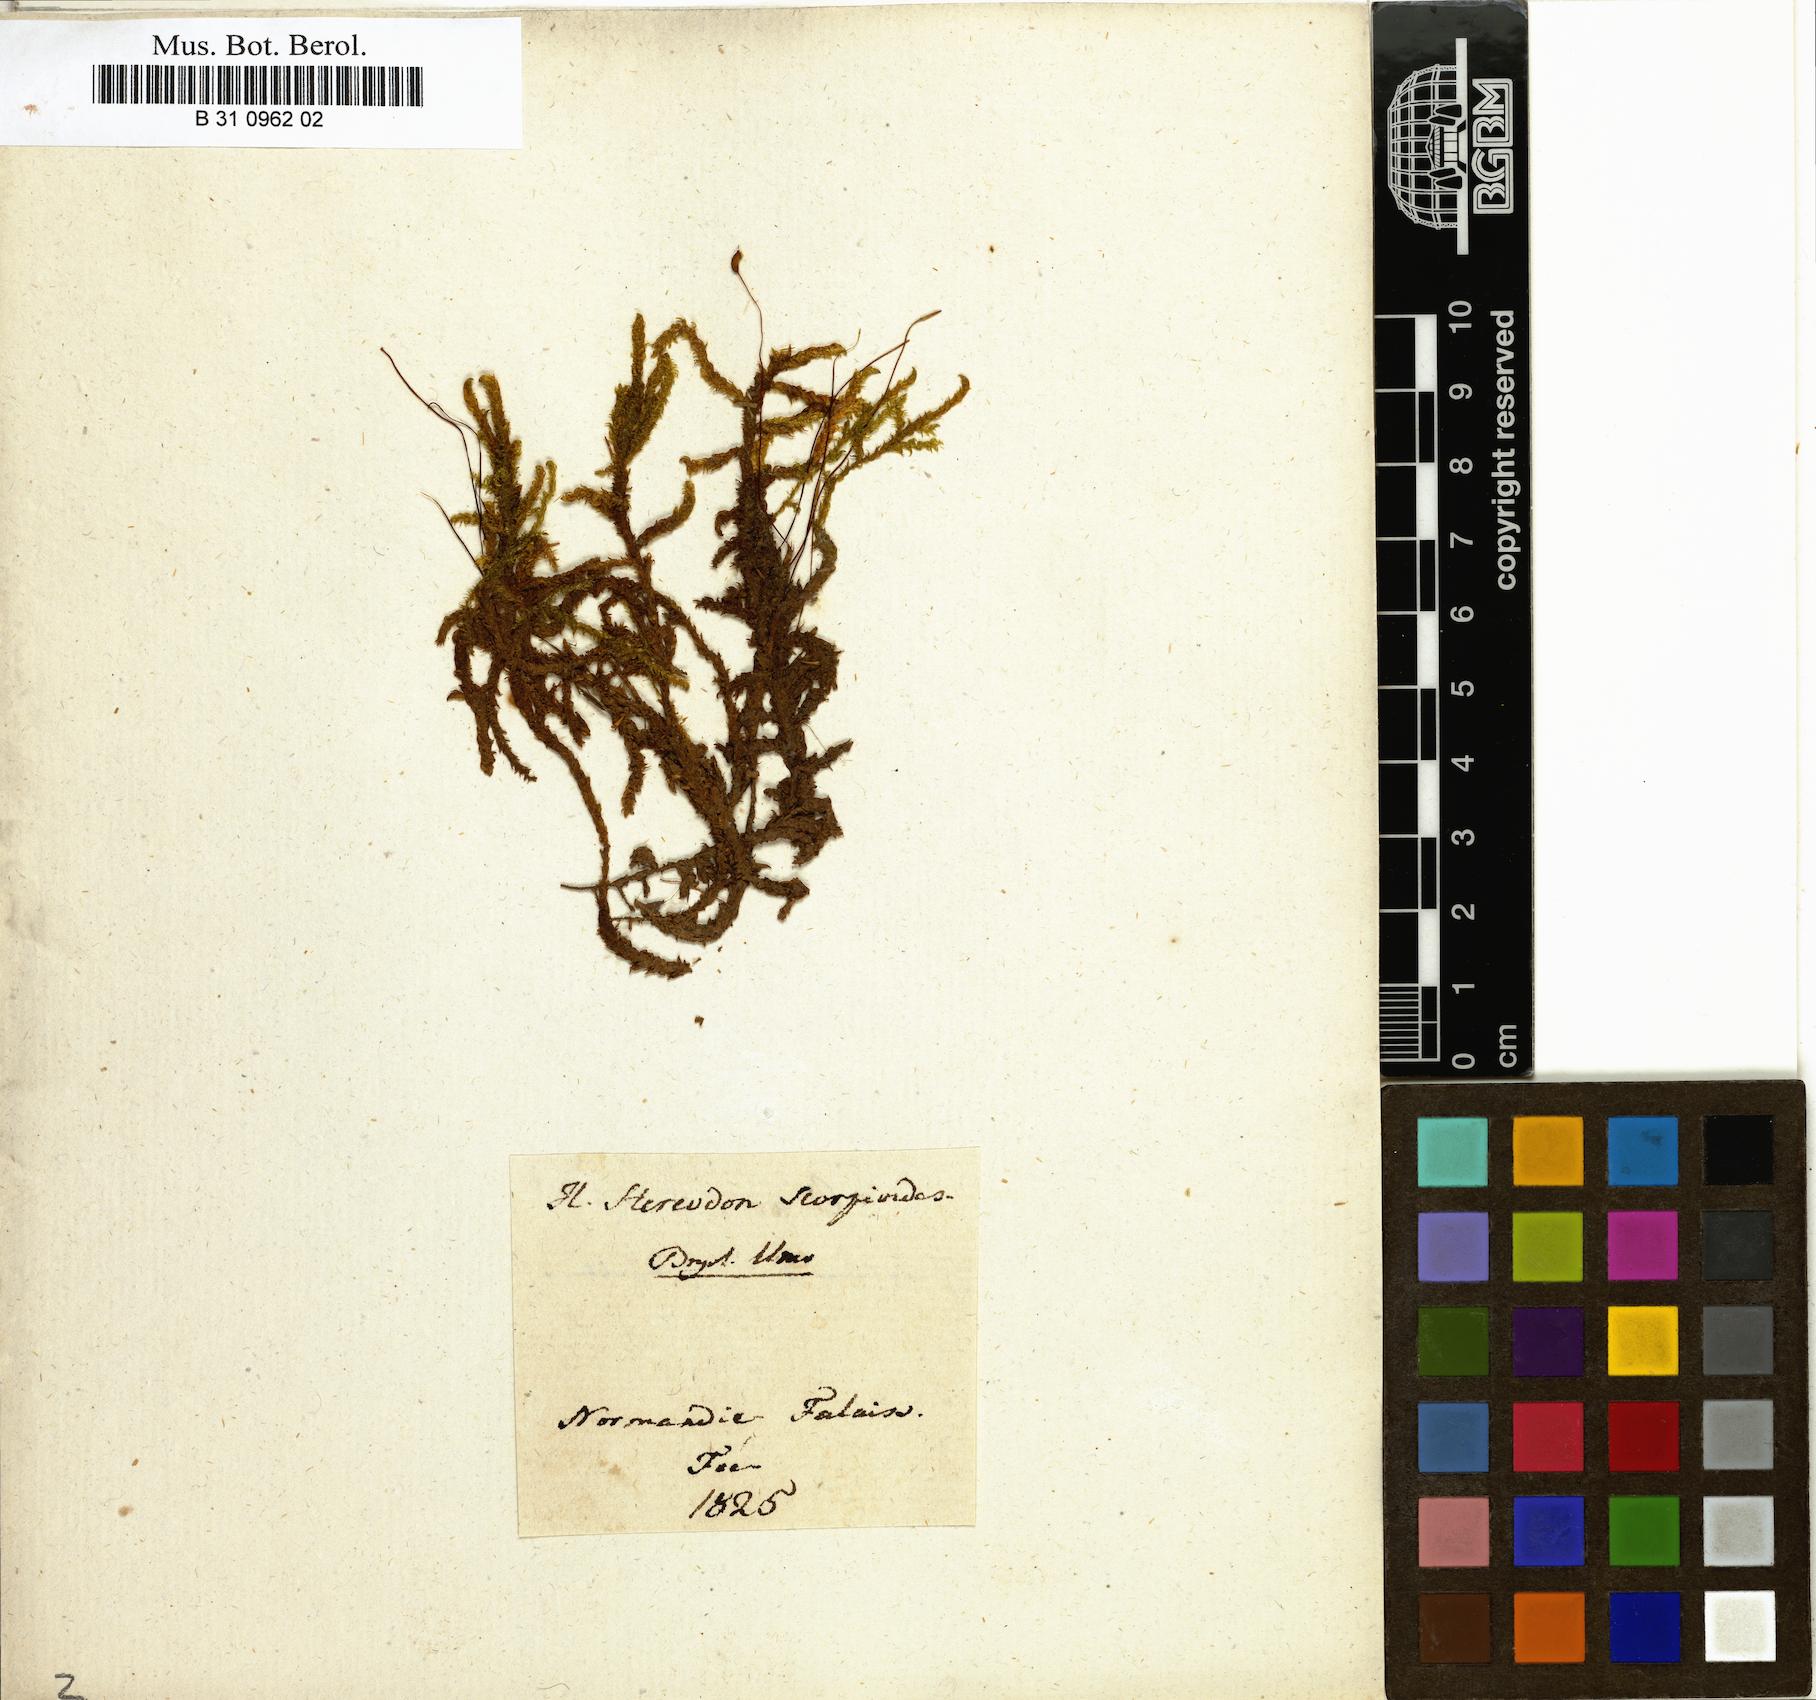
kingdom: Plantae
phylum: Bryophyta
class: Bryopsida
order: Hypnales
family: Scorpidiaceae
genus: Scorpidium
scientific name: Scorpidium scorpioides
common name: Hooked scorpion moss
